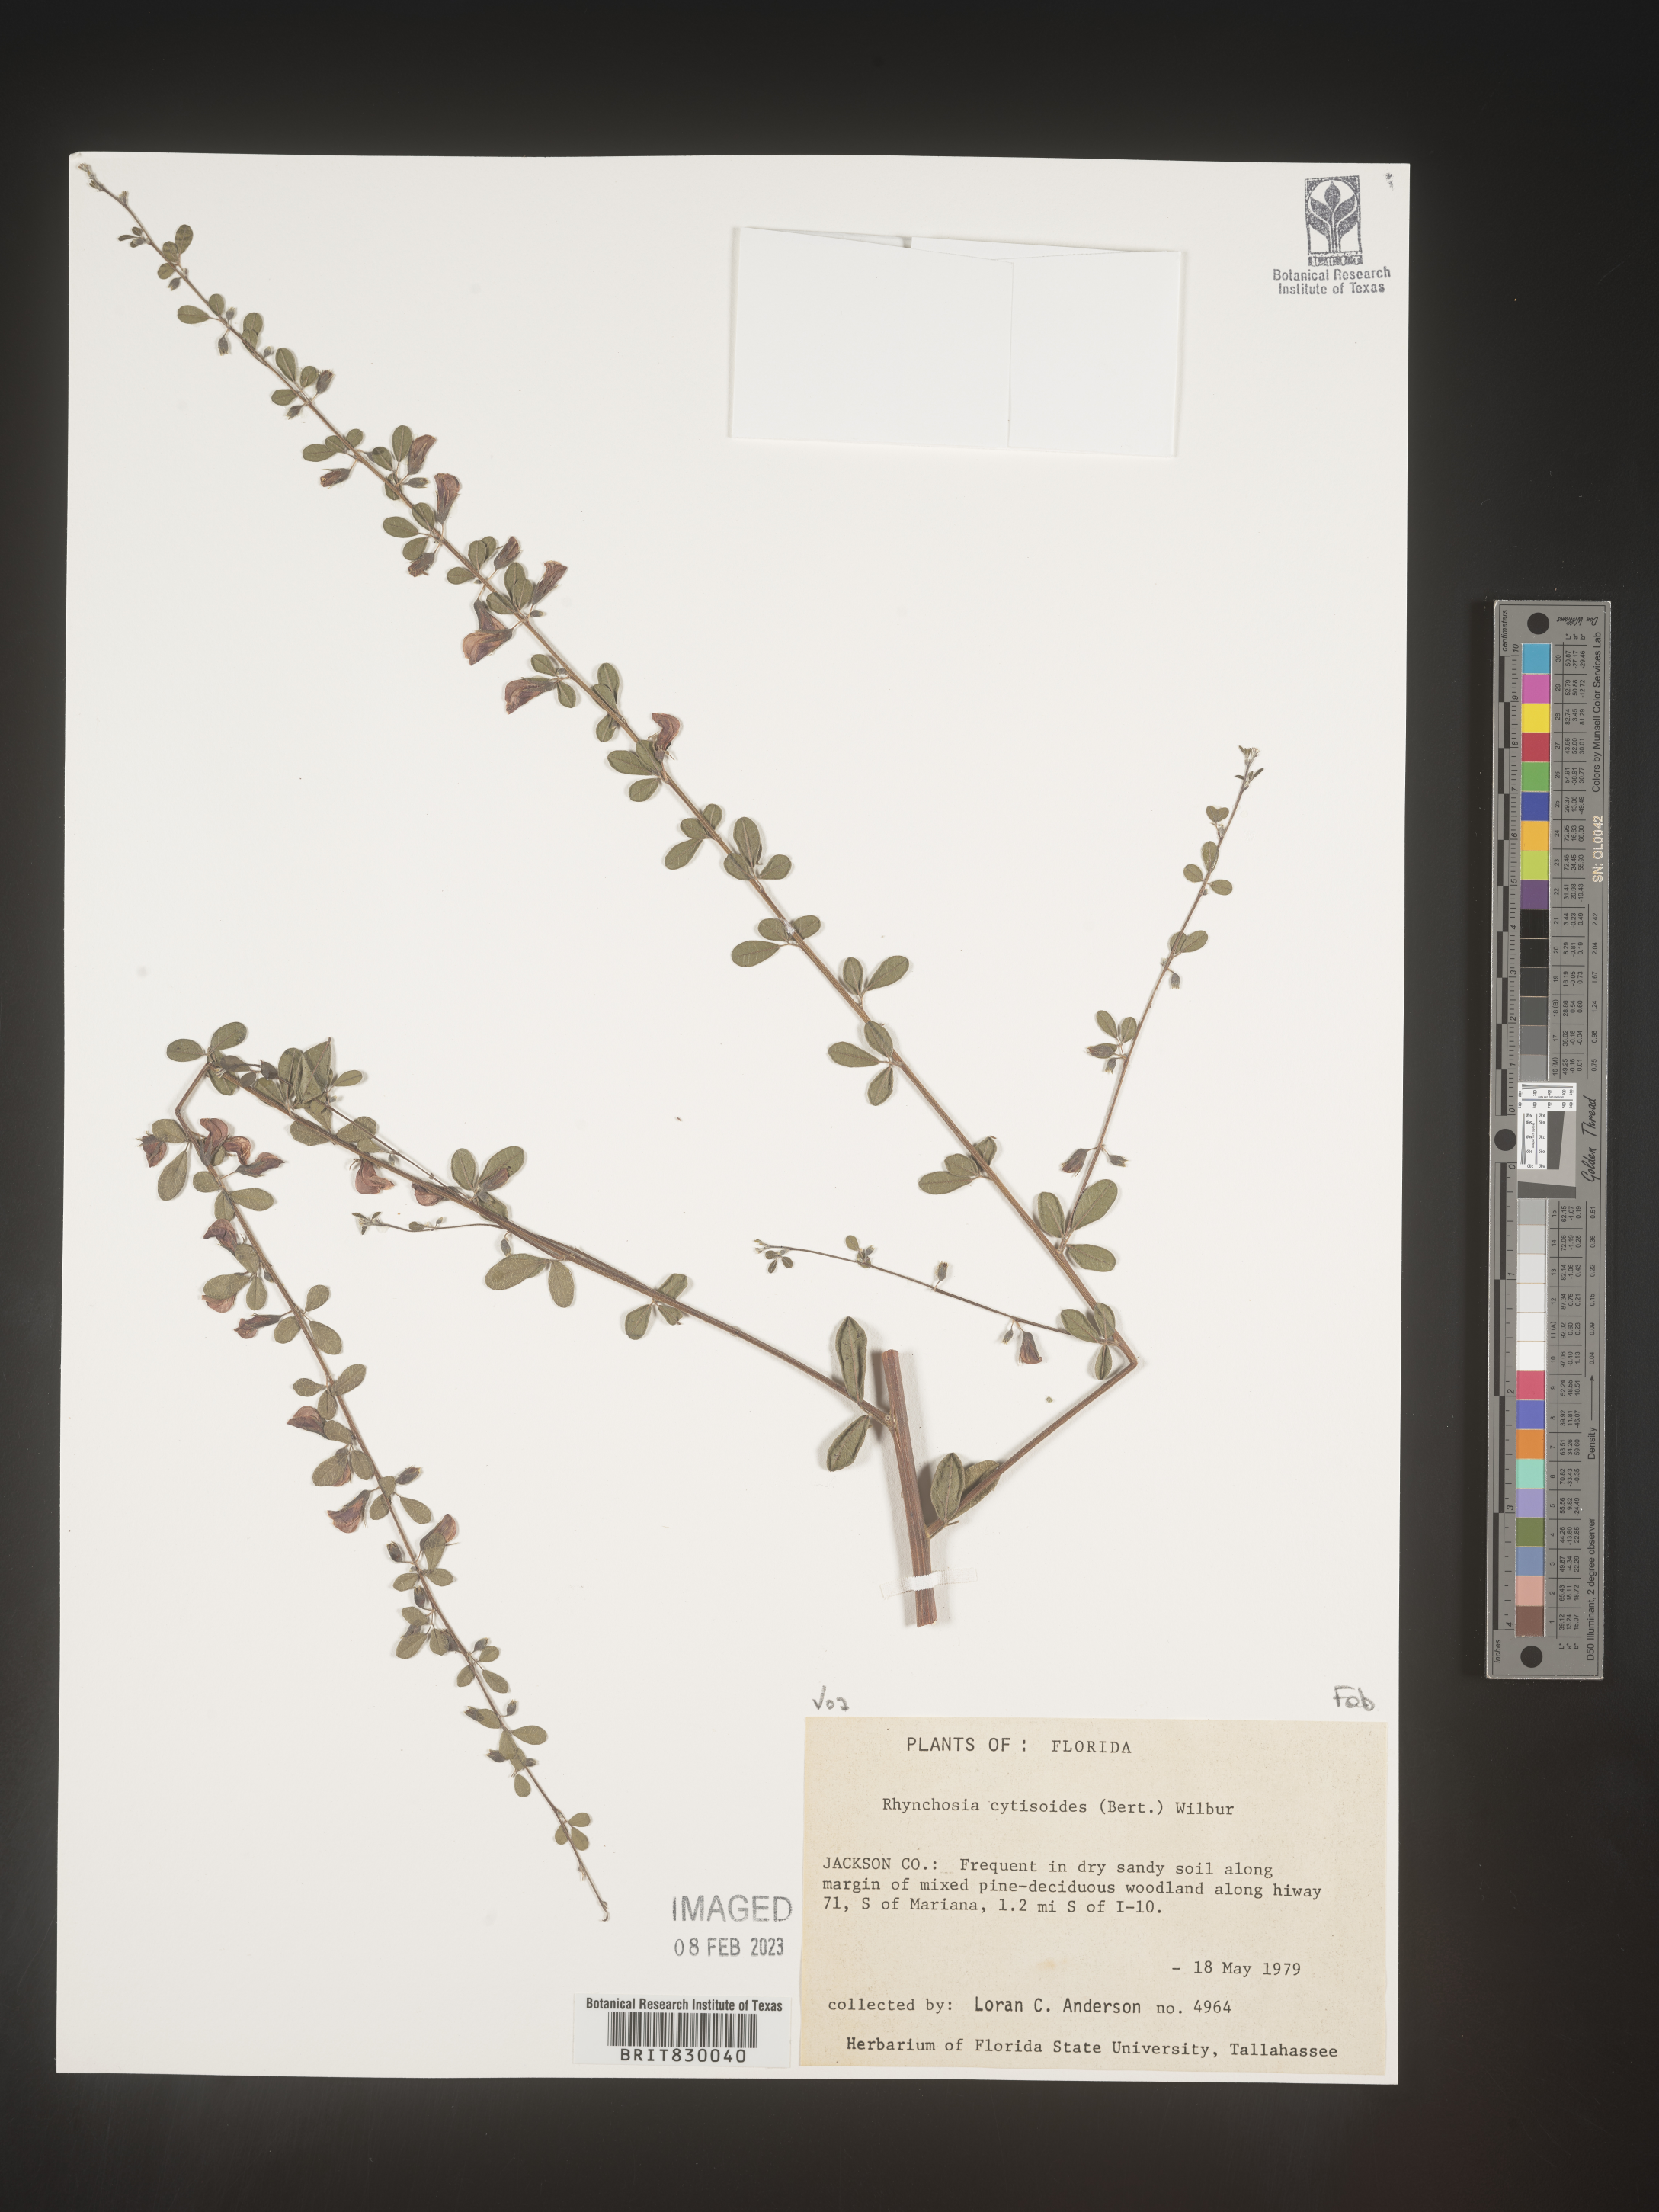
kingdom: Plantae
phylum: Tracheophyta
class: Magnoliopsida
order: Fabales
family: Fabaceae
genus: Rhynchosia
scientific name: Rhynchosia
